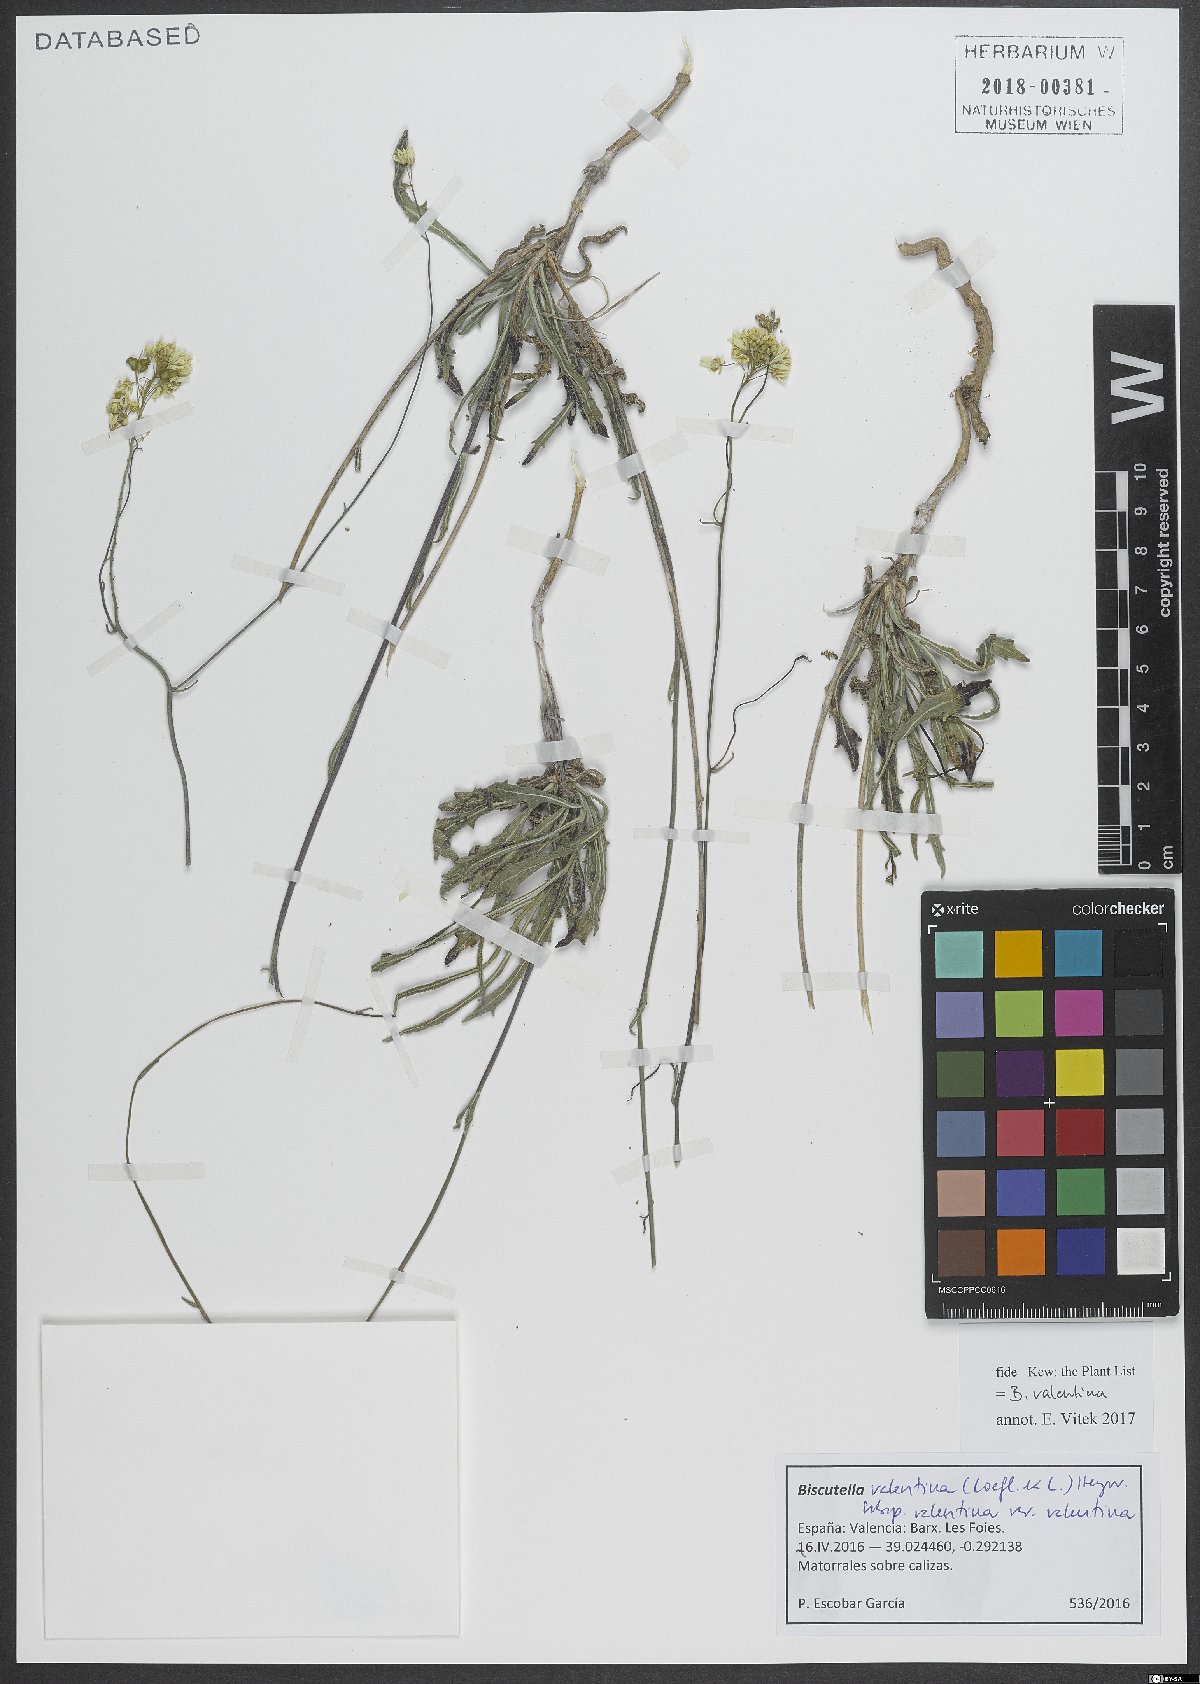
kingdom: Plantae
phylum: Tracheophyta
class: Magnoliopsida
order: Brassicales
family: Brassicaceae
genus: Biscutella
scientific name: Biscutella valentina
